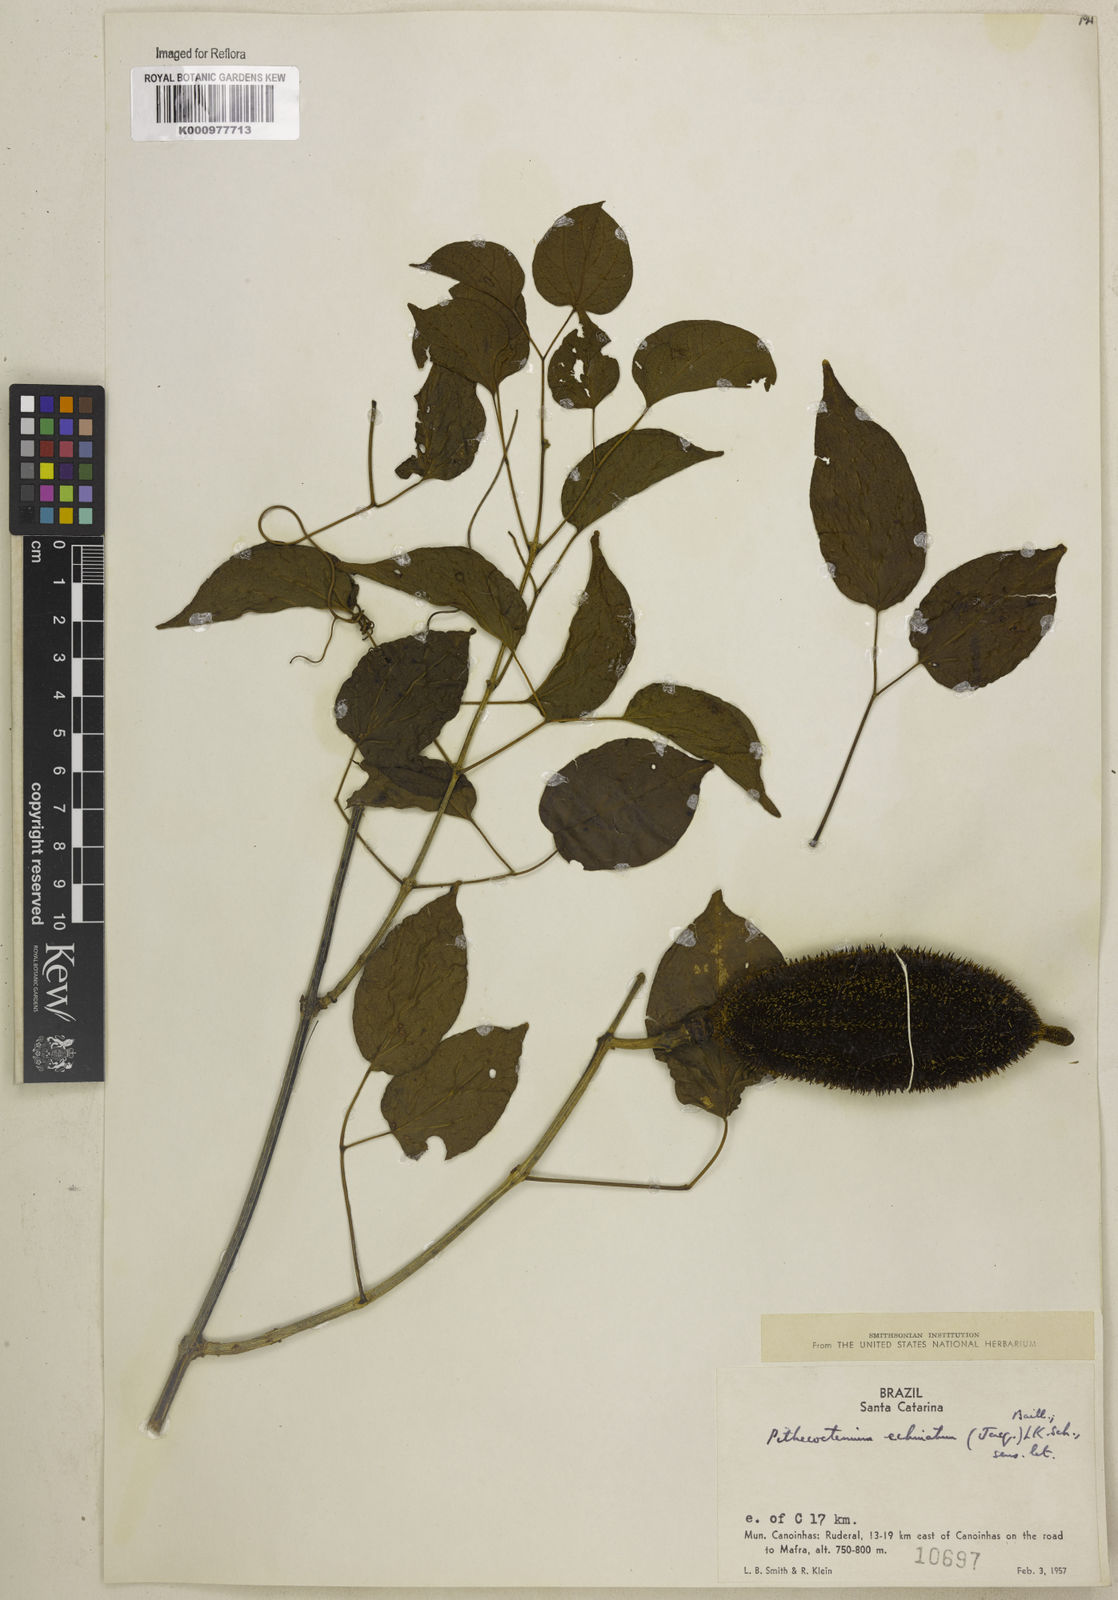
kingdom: Plantae
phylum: Tracheophyta
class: Magnoliopsida
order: Lamiales
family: Bignoniaceae
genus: Amphilophium
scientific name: Amphilophium crucigerum
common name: Monkey comb
